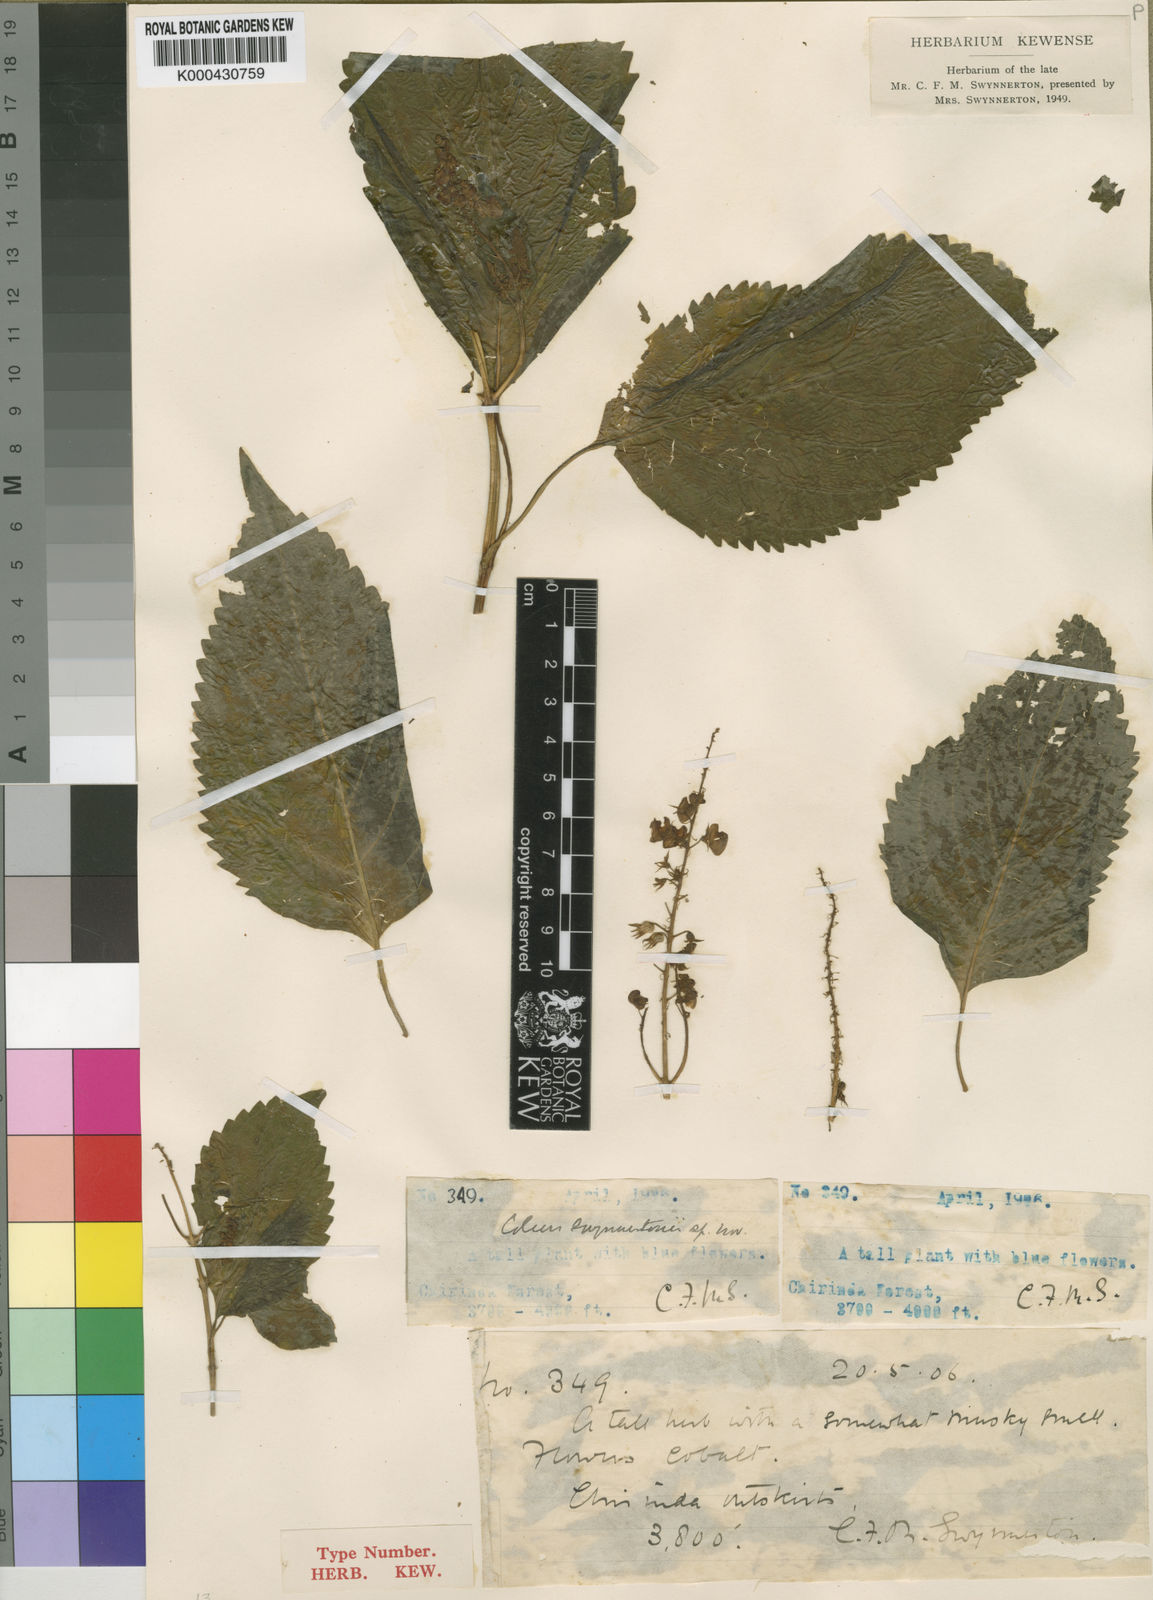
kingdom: Plantae
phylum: Tracheophyta
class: Magnoliopsida
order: Lamiales
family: Lamiaceae
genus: Plectranthus
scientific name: Plectranthus longipetiolatus
